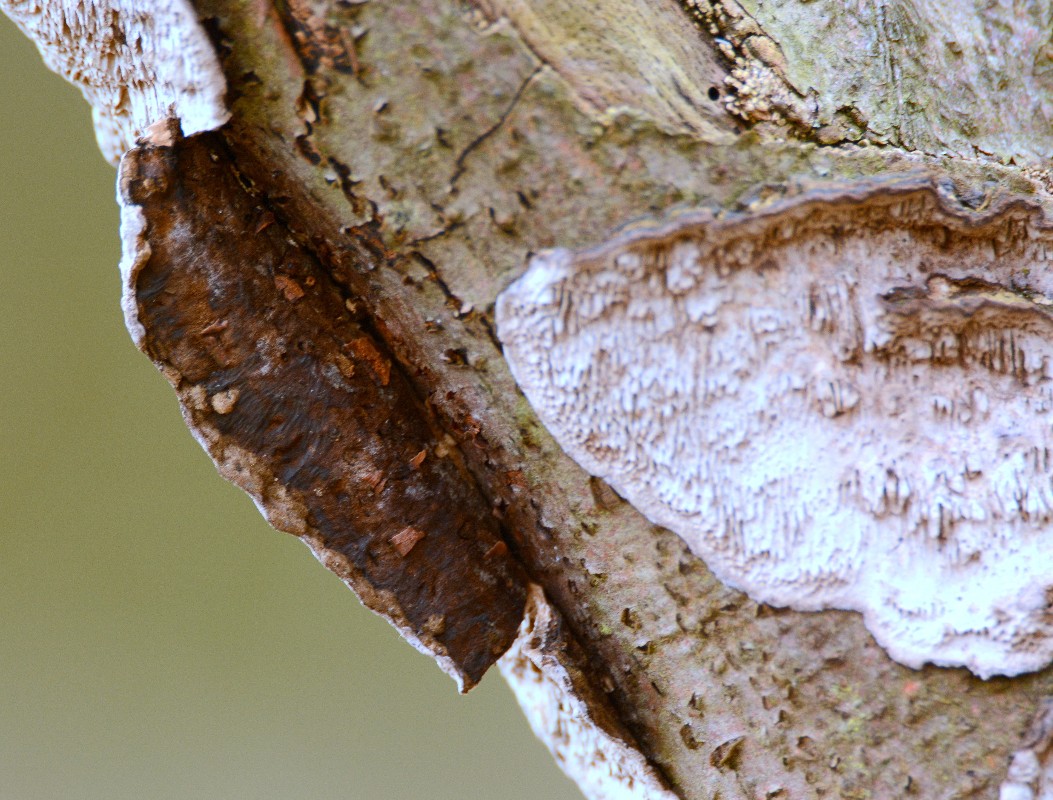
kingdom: Fungi
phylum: Basidiomycota
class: Agaricomycetes
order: Polyporales
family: Polyporaceae
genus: Podofomes
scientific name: Podofomes mollis
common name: blød begporesvamp
